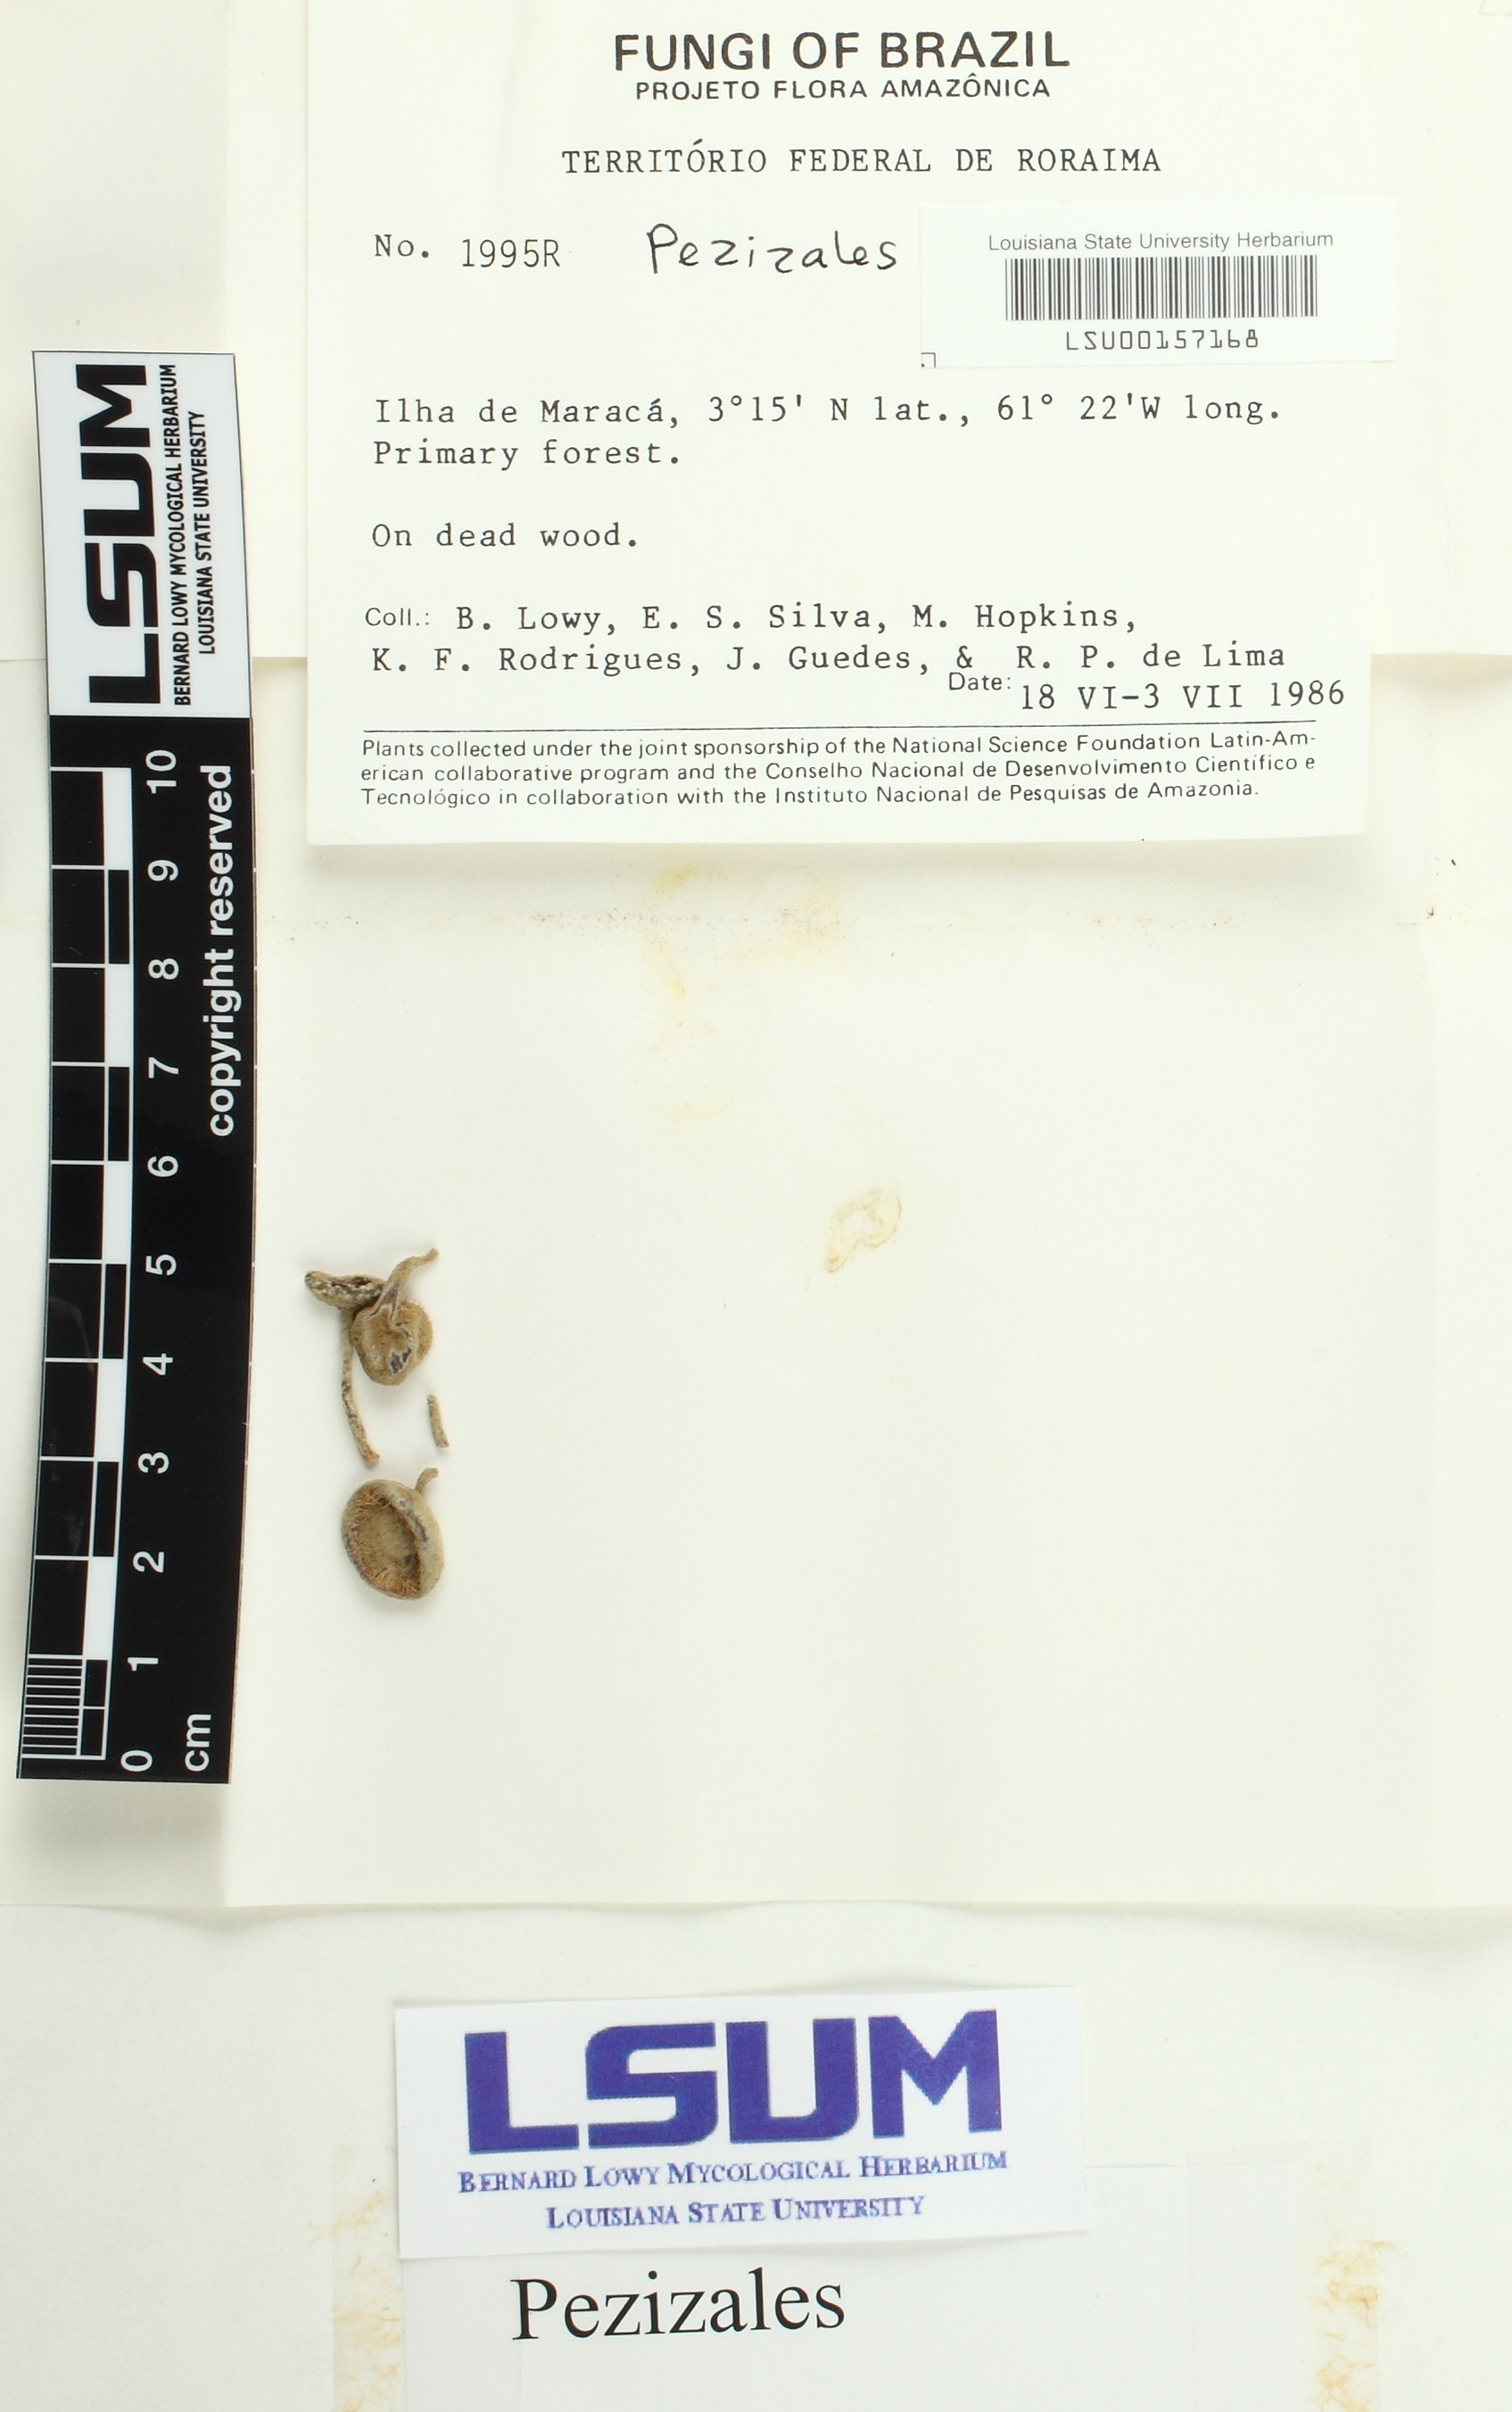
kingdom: Fungi
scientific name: Fungi
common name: Fungi
